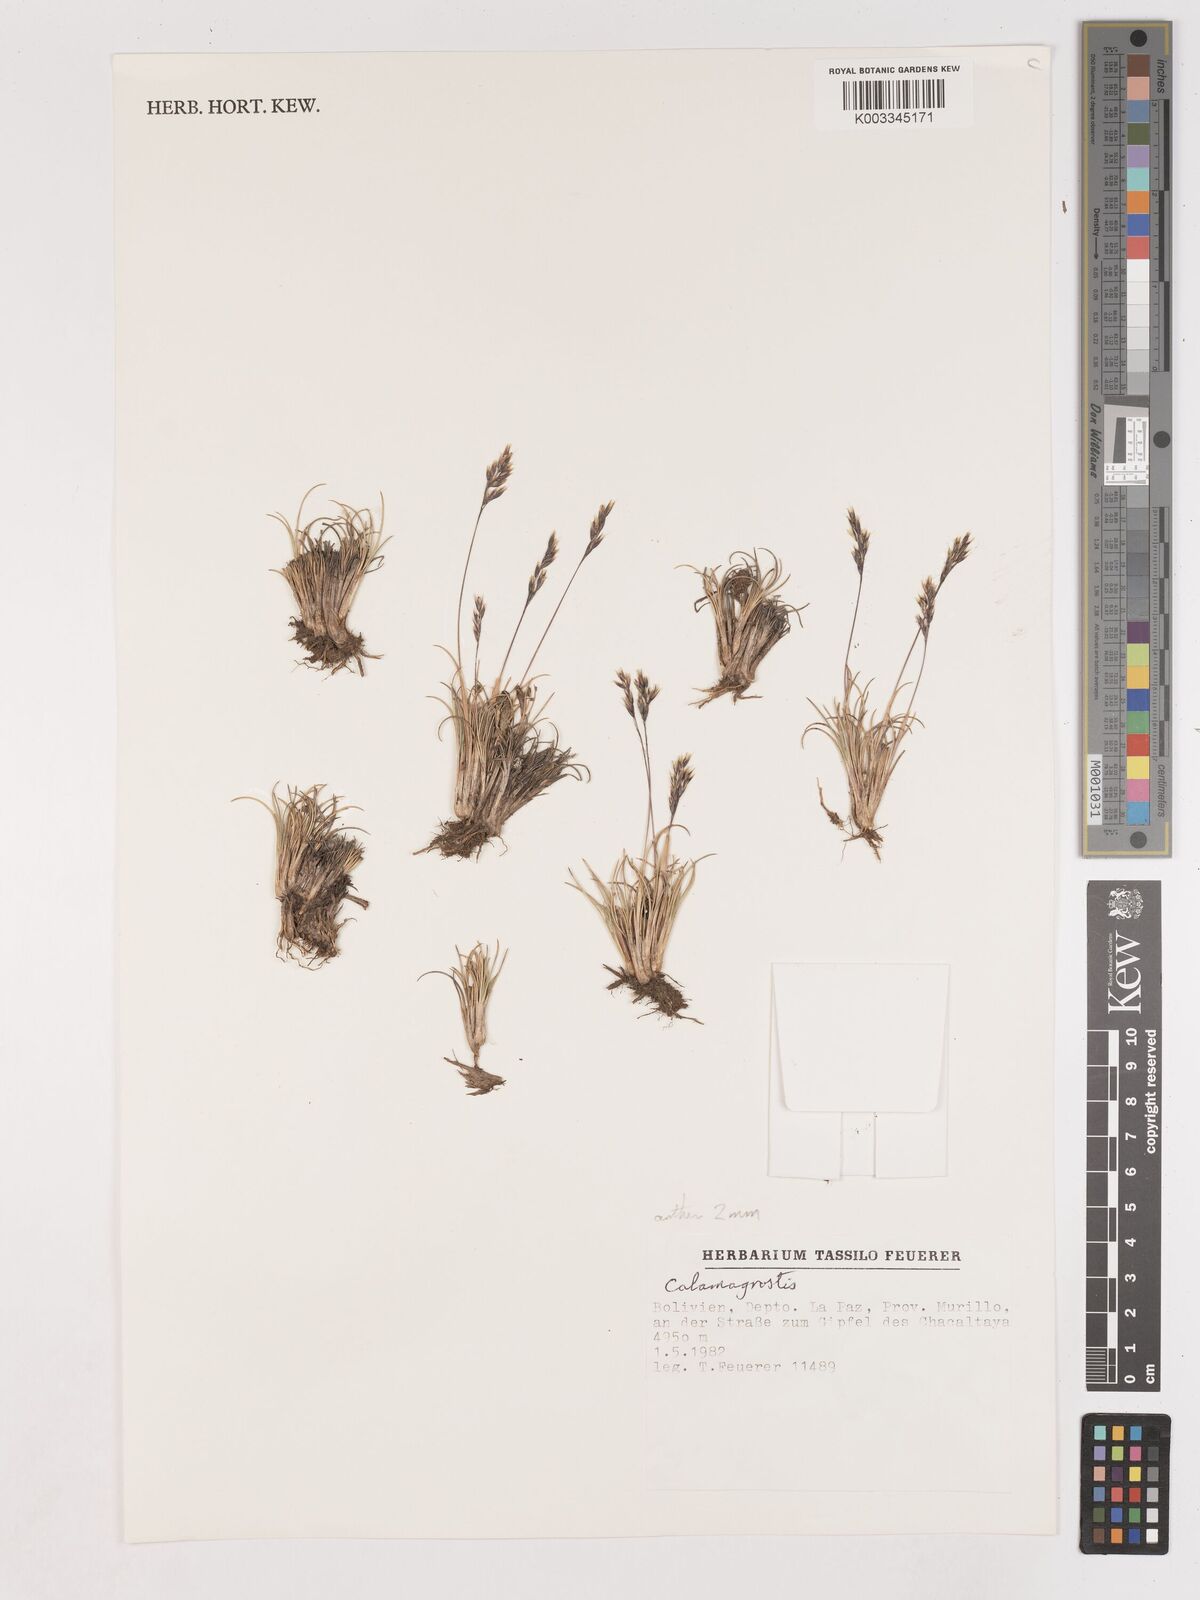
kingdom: Plantae
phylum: Tracheophyta
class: Liliopsida
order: Poales
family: Poaceae
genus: Calamagrostis
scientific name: Calamagrostis
